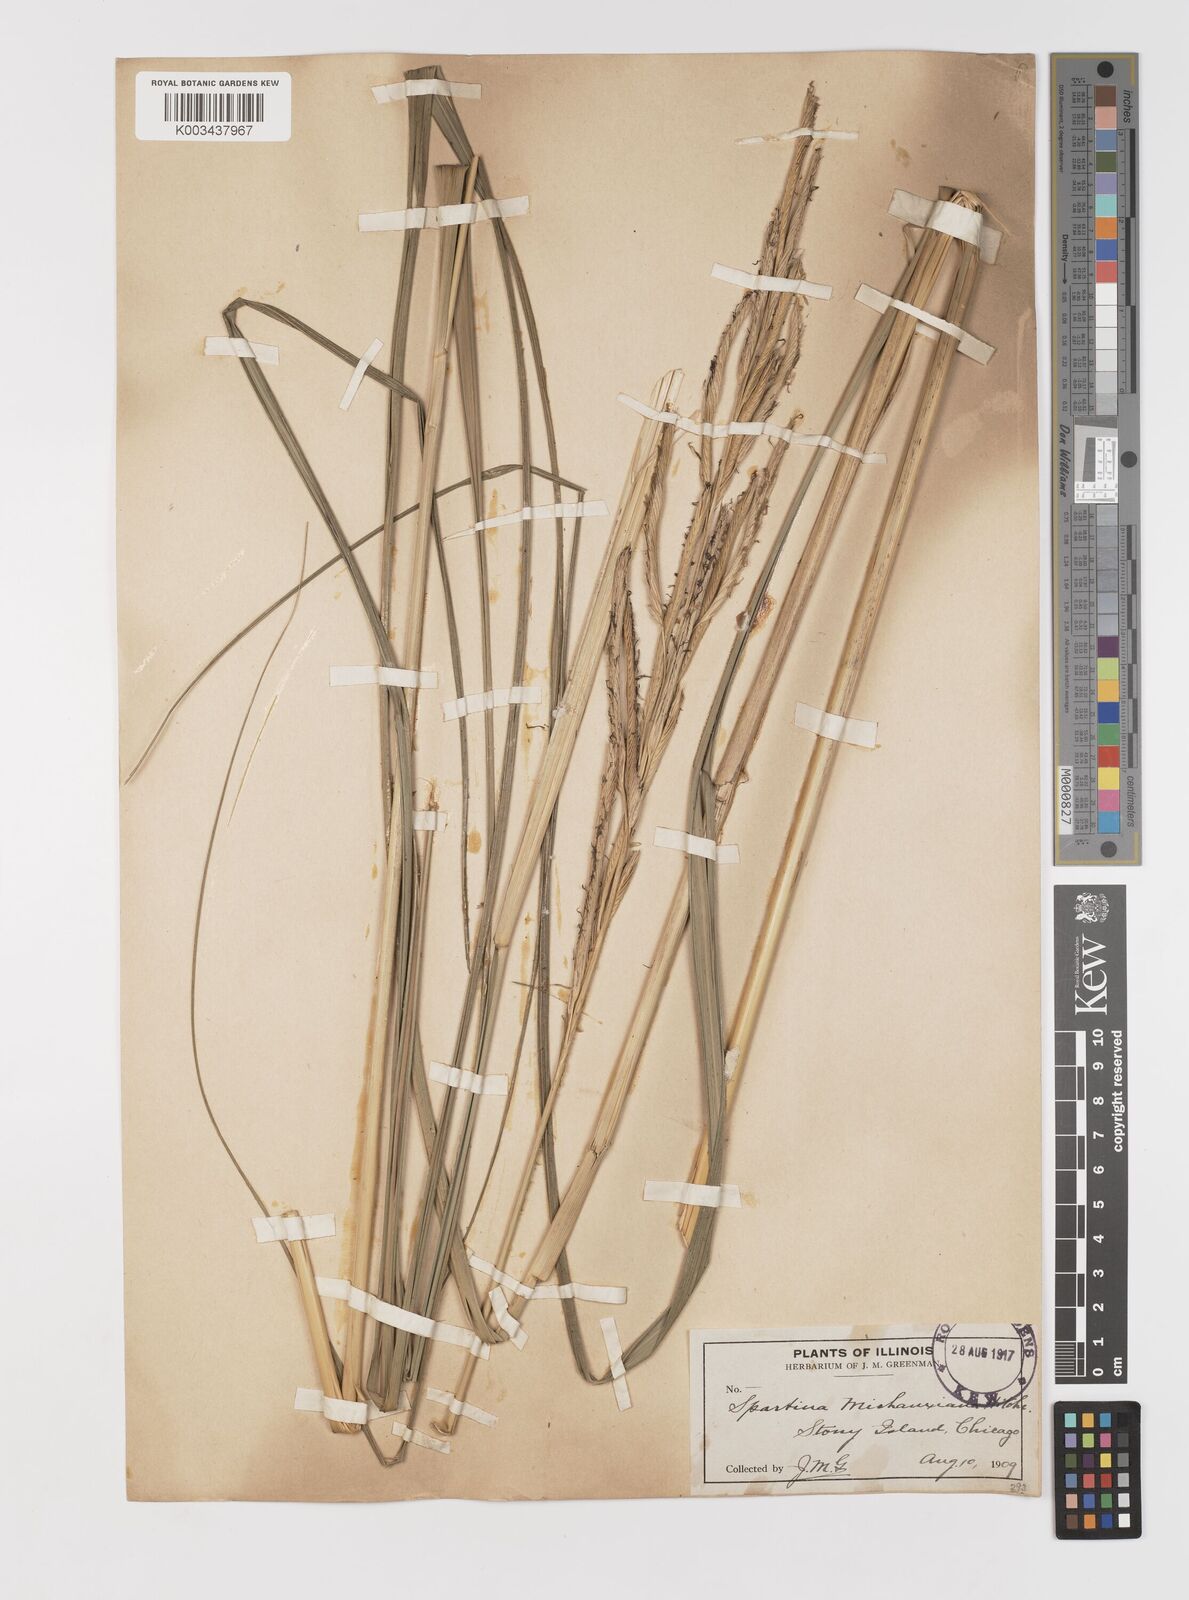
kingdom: Plantae
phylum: Tracheophyta
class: Liliopsida
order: Poales
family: Poaceae
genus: Sporobolus
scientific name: Sporobolus michauxianus
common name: Freshwater cordgrass
